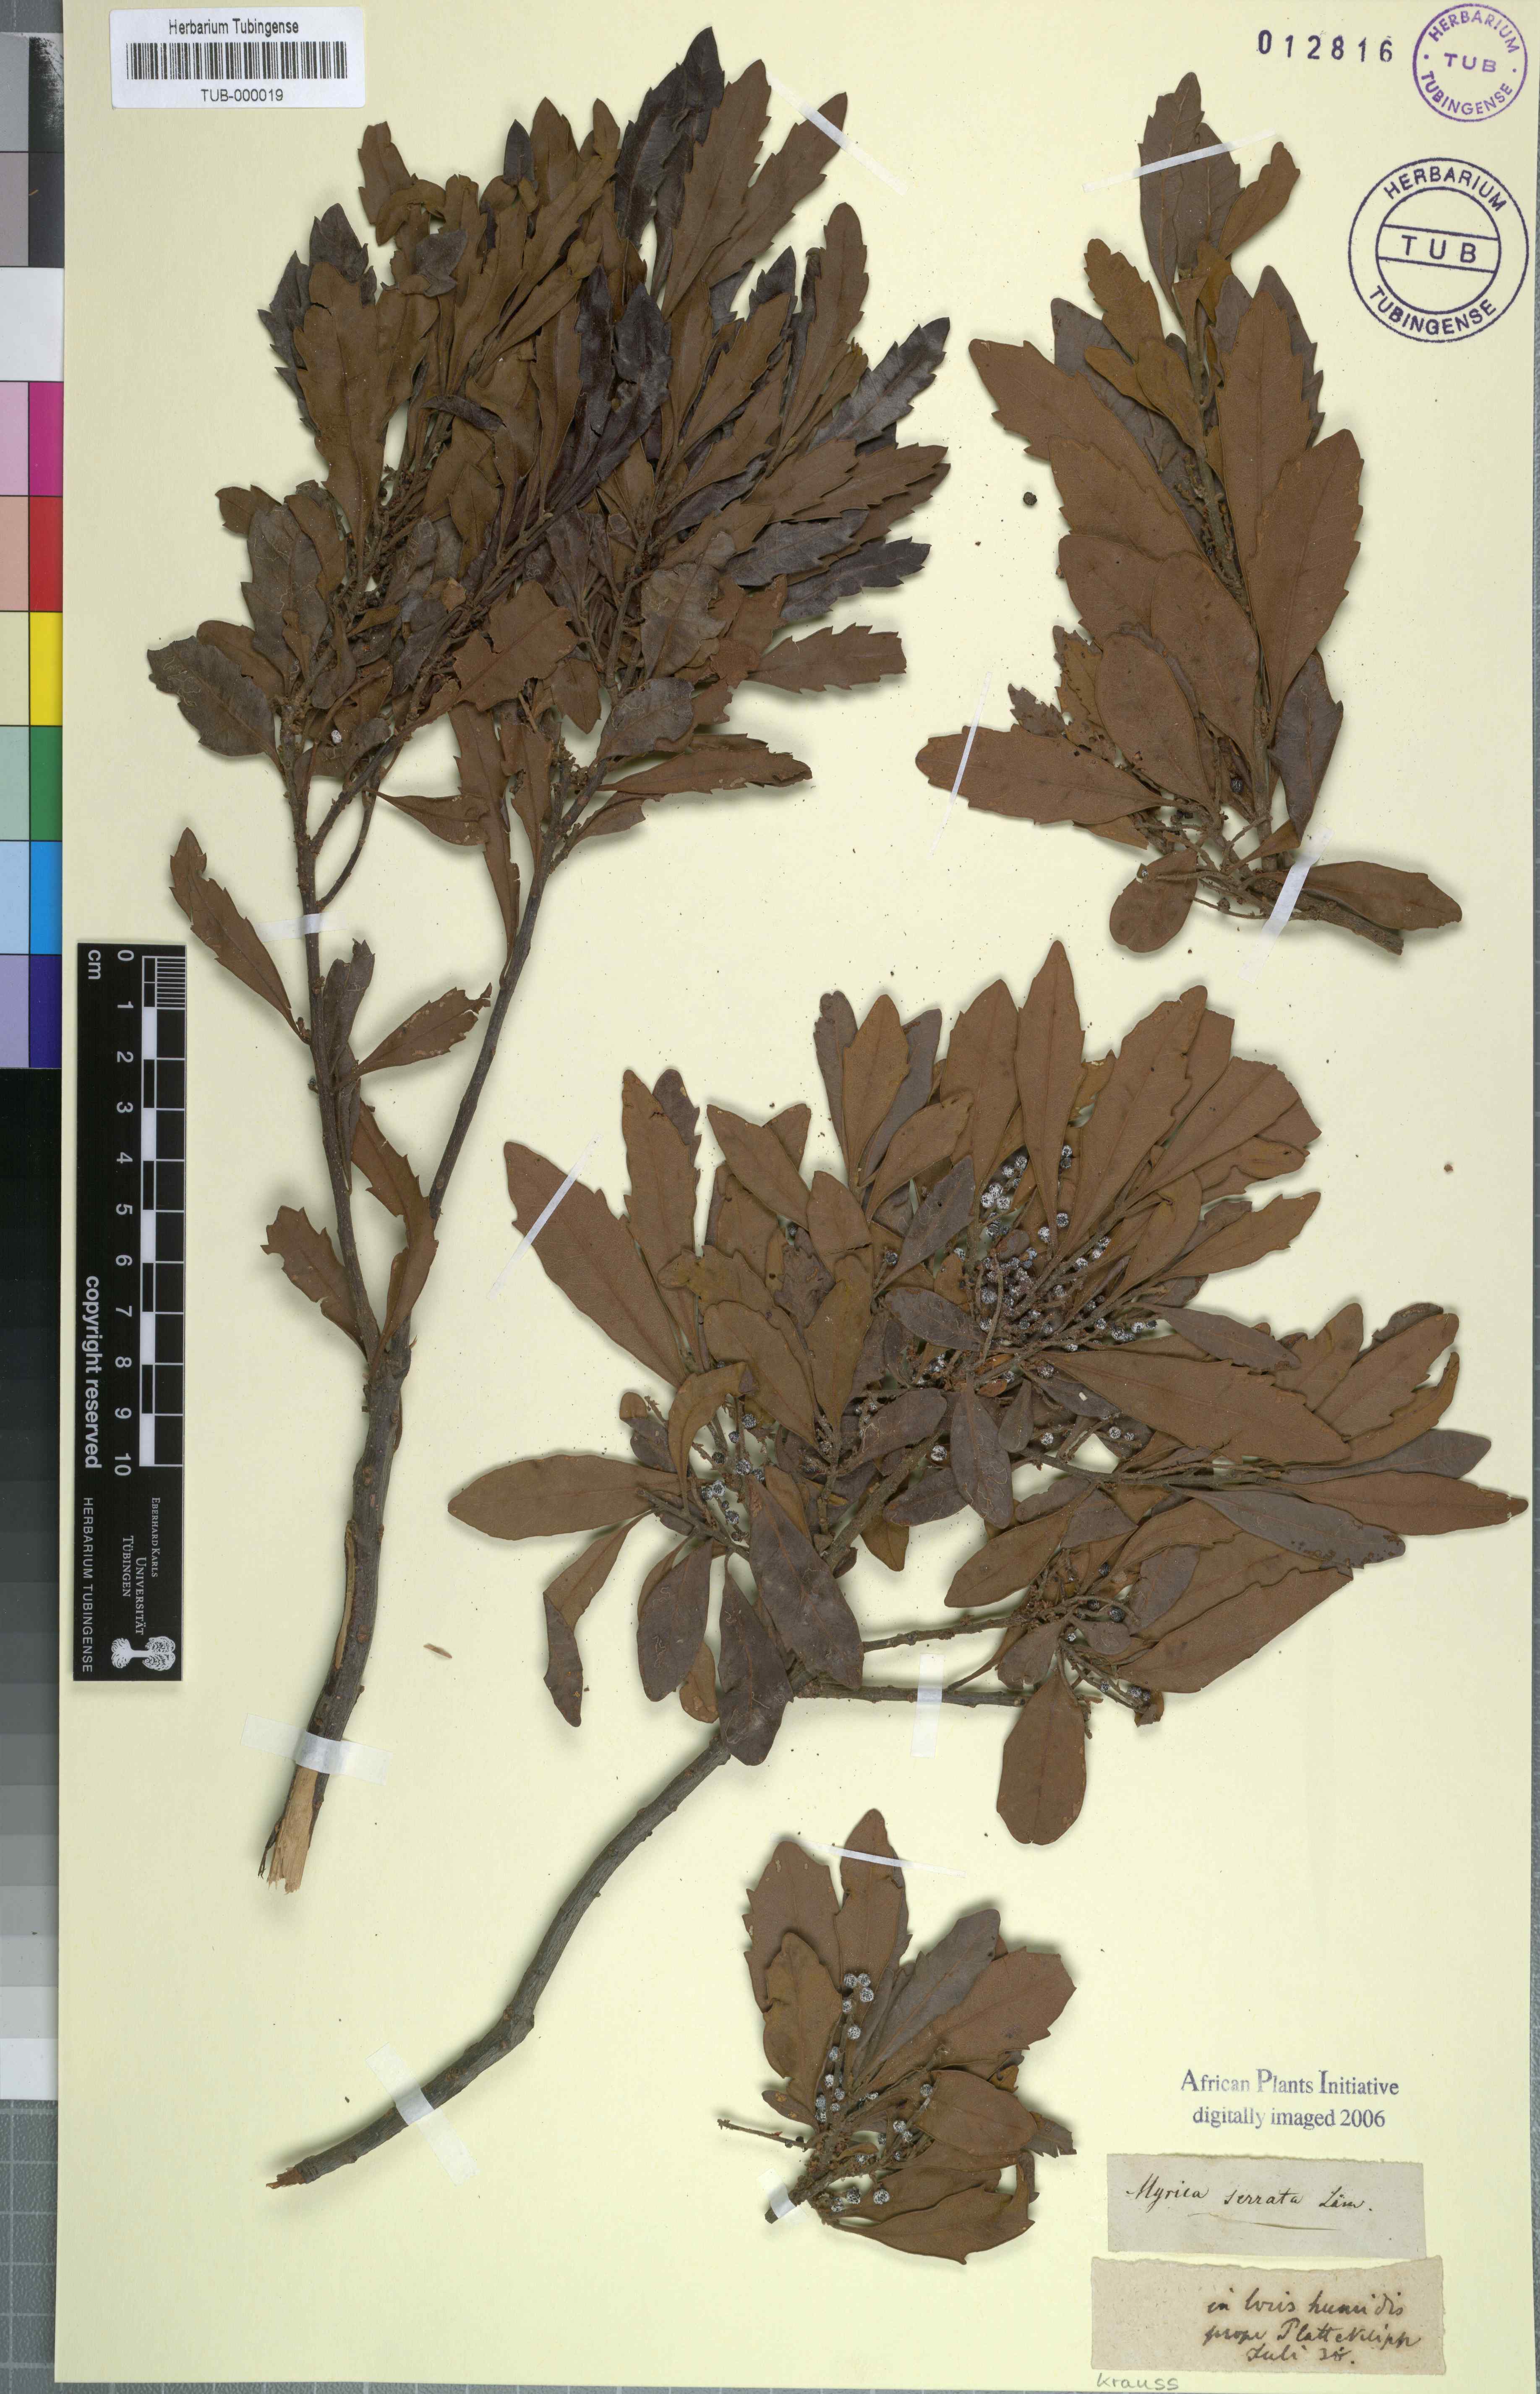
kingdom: Plantae
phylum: Tracheophyta
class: Magnoliopsida
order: Fagales
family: Myricaceae
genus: Morella
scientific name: Morella serrata
